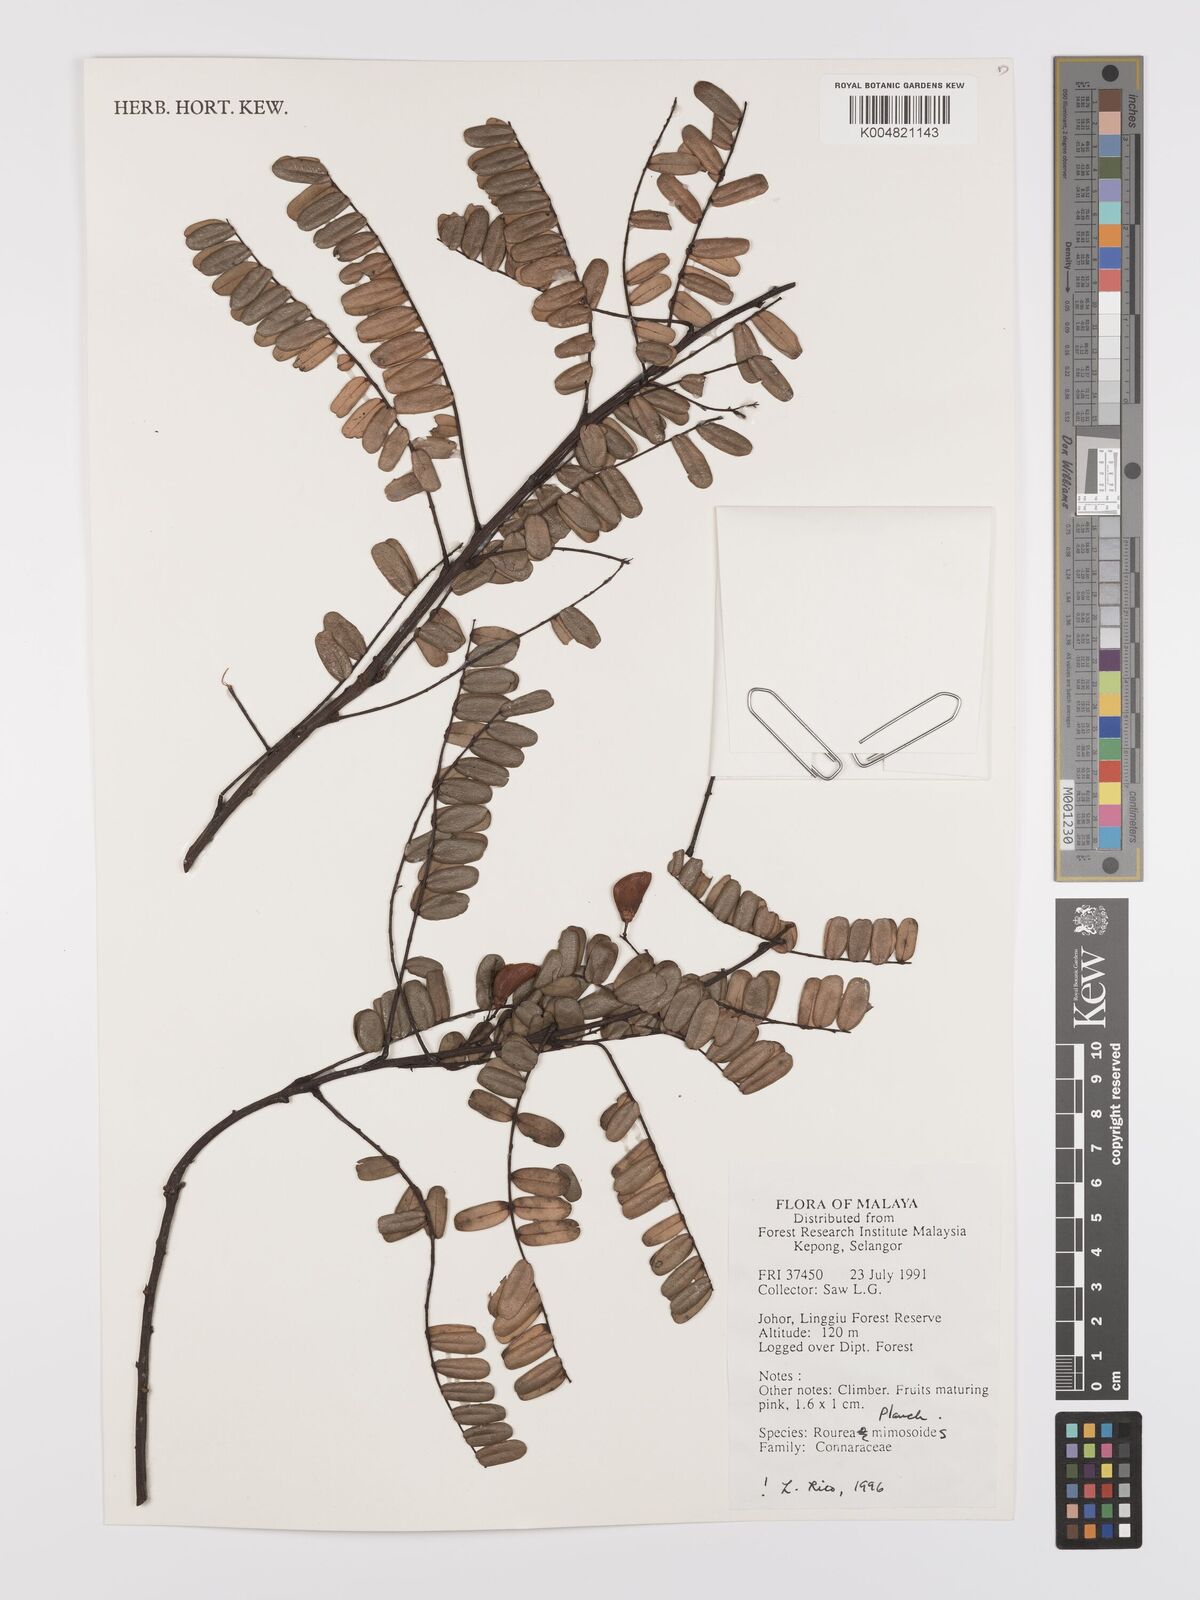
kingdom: Plantae
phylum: Tracheophyta
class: Magnoliopsida
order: Oxalidales
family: Connaraceae
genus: Rourea
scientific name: Rourea mimosoides
